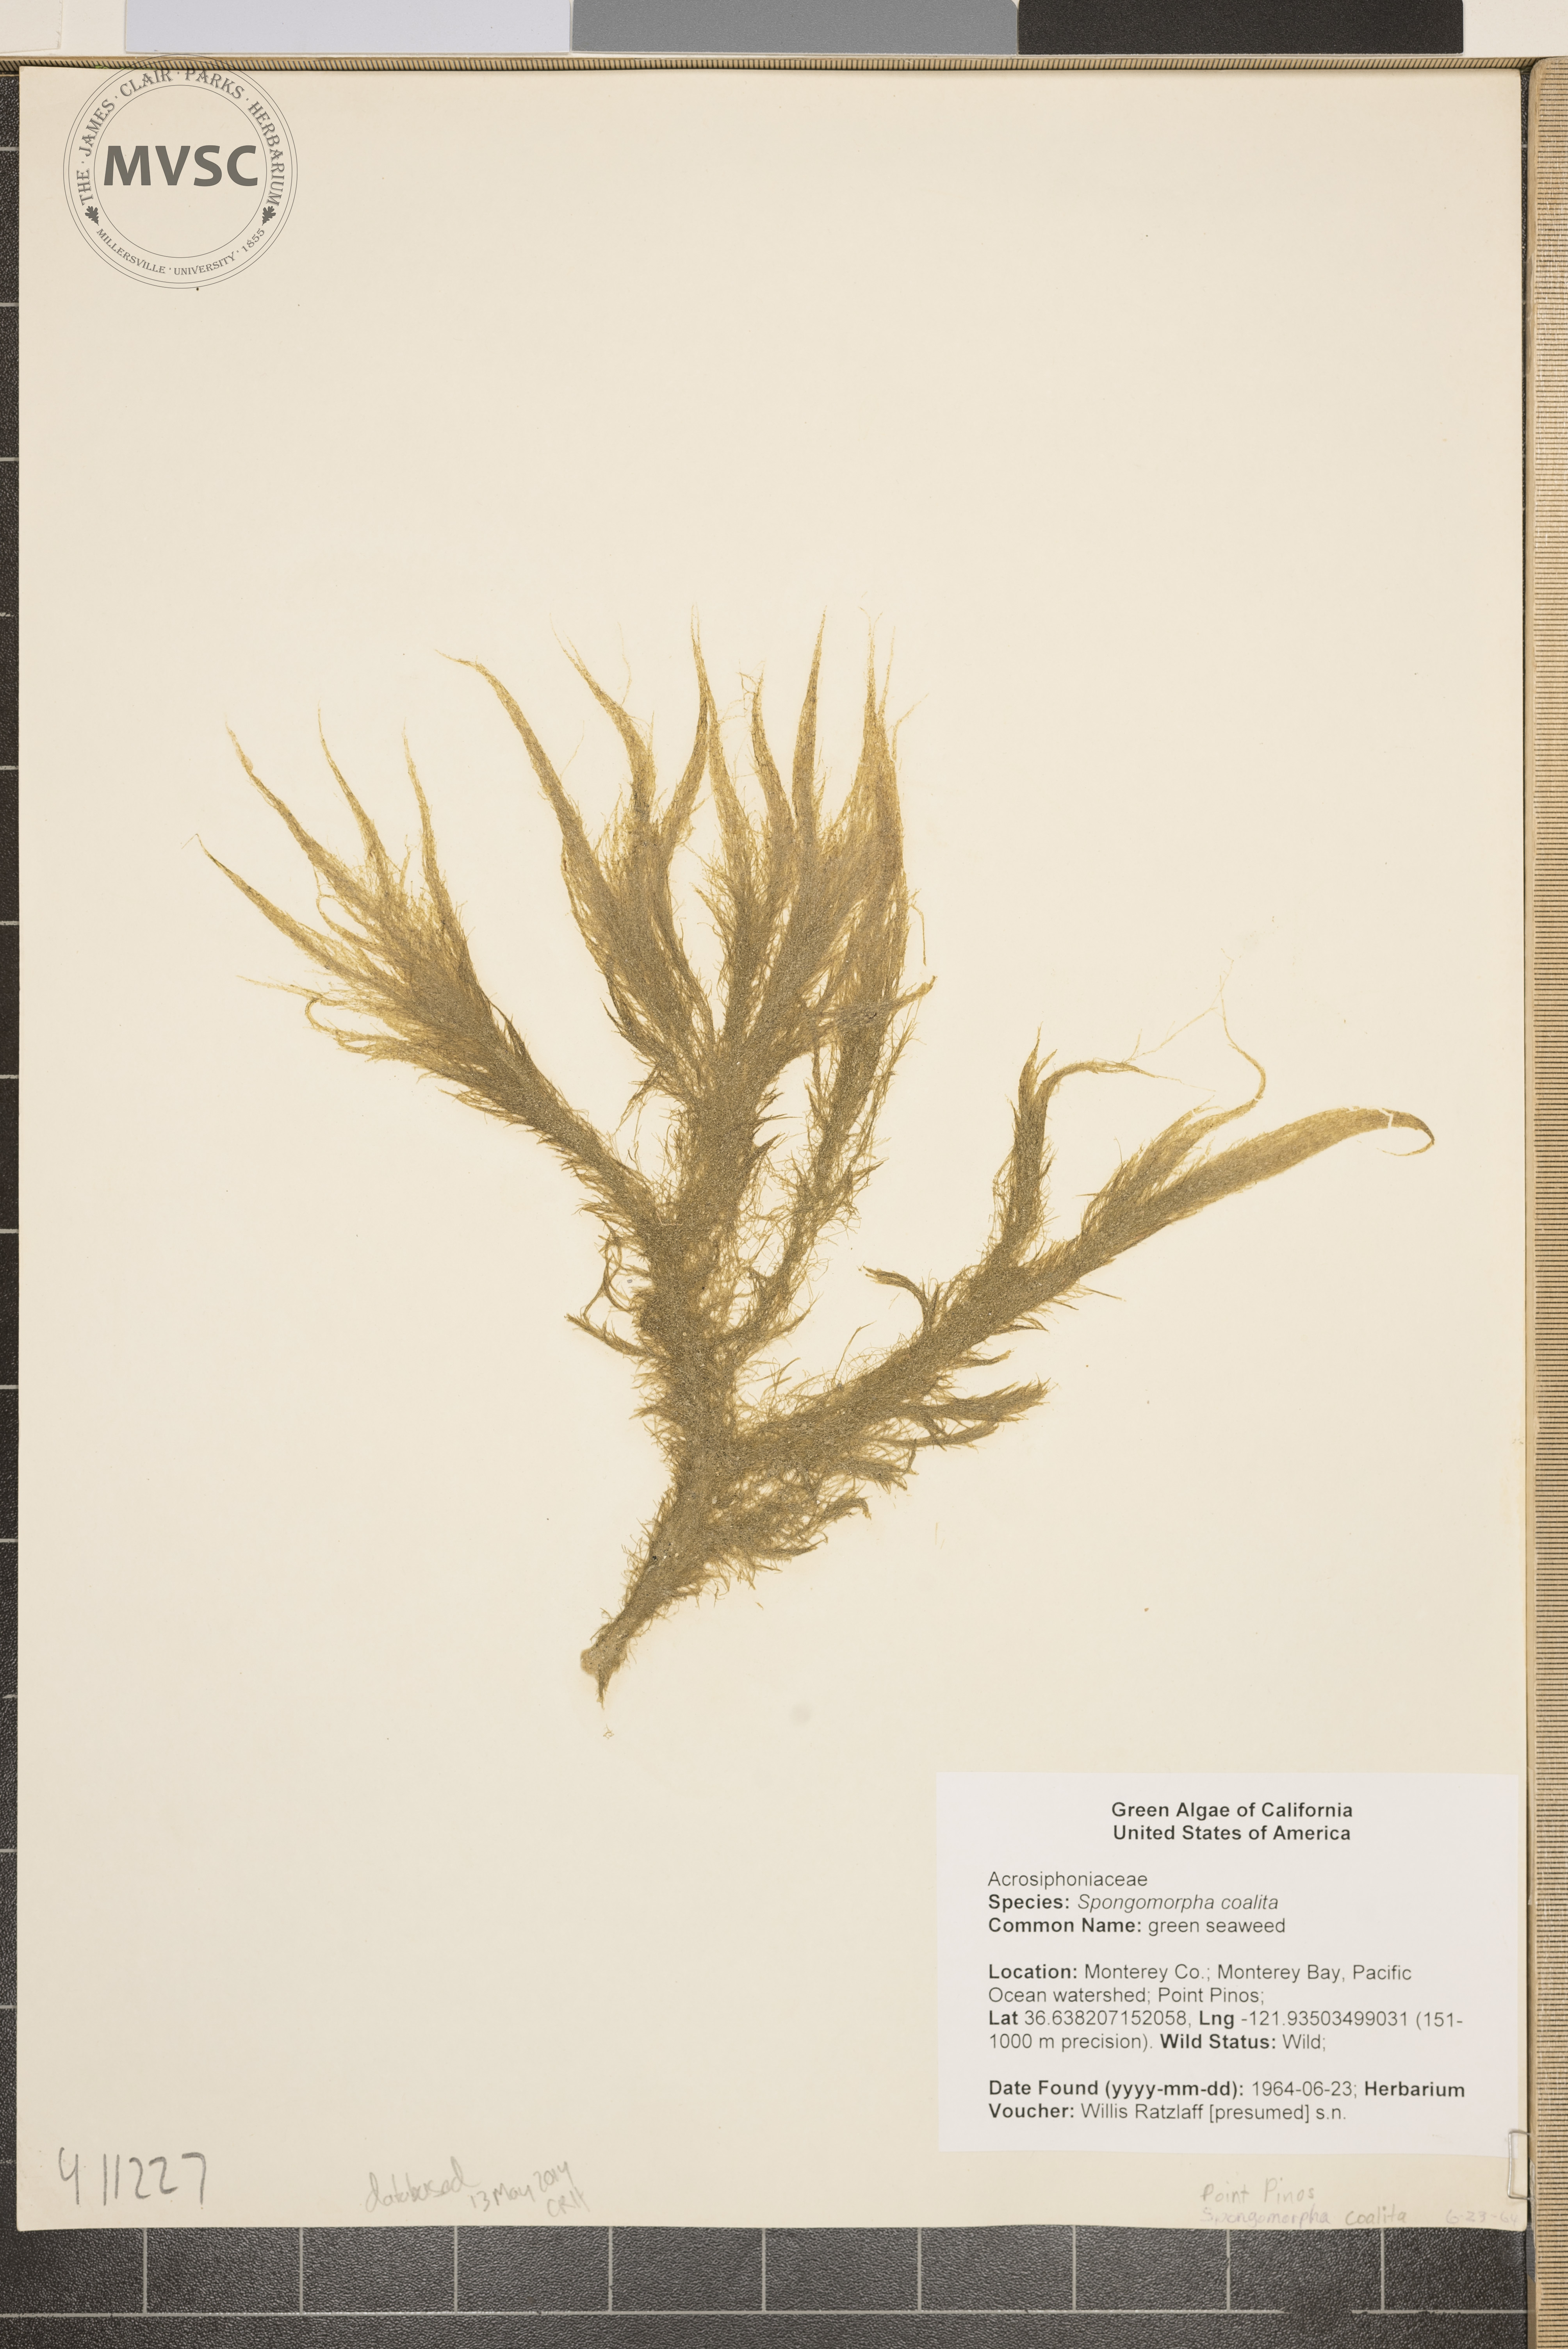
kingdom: Plantae
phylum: Chlorophyta
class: Ulvophyceae
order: Ulotrichales
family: Ulotrichaceae
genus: Spongomorpha
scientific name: Spongomorpha coalita
